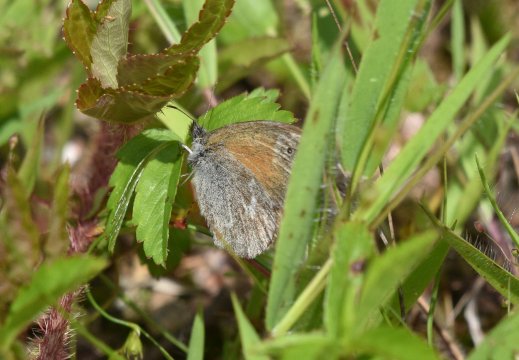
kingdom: Animalia
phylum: Arthropoda
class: Insecta
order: Lepidoptera
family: Nymphalidae
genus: Coenonympha
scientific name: Coenonympha tullia
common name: Large Heath
